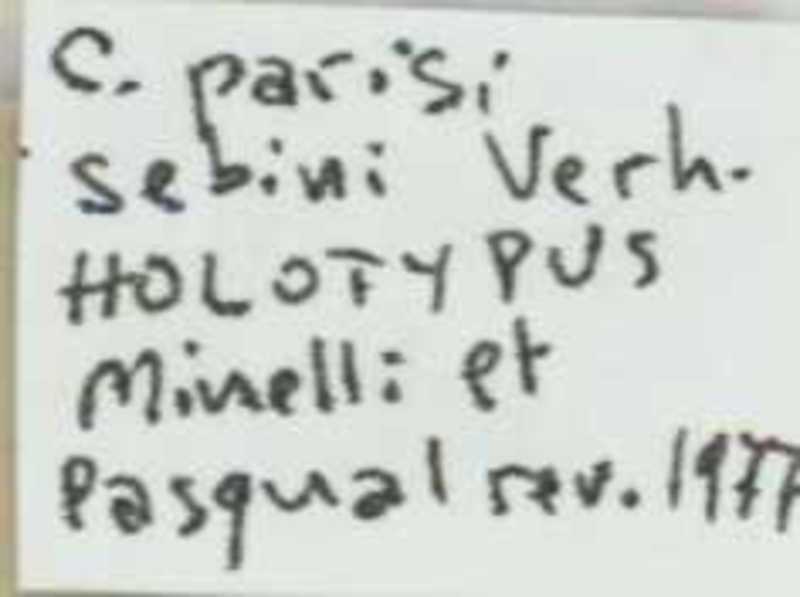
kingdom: Animalia
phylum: Arthropoda
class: Chilopoda
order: Scolopendromorpha
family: Cryptopidae
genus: Cryptops
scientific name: Cryptops parisi
